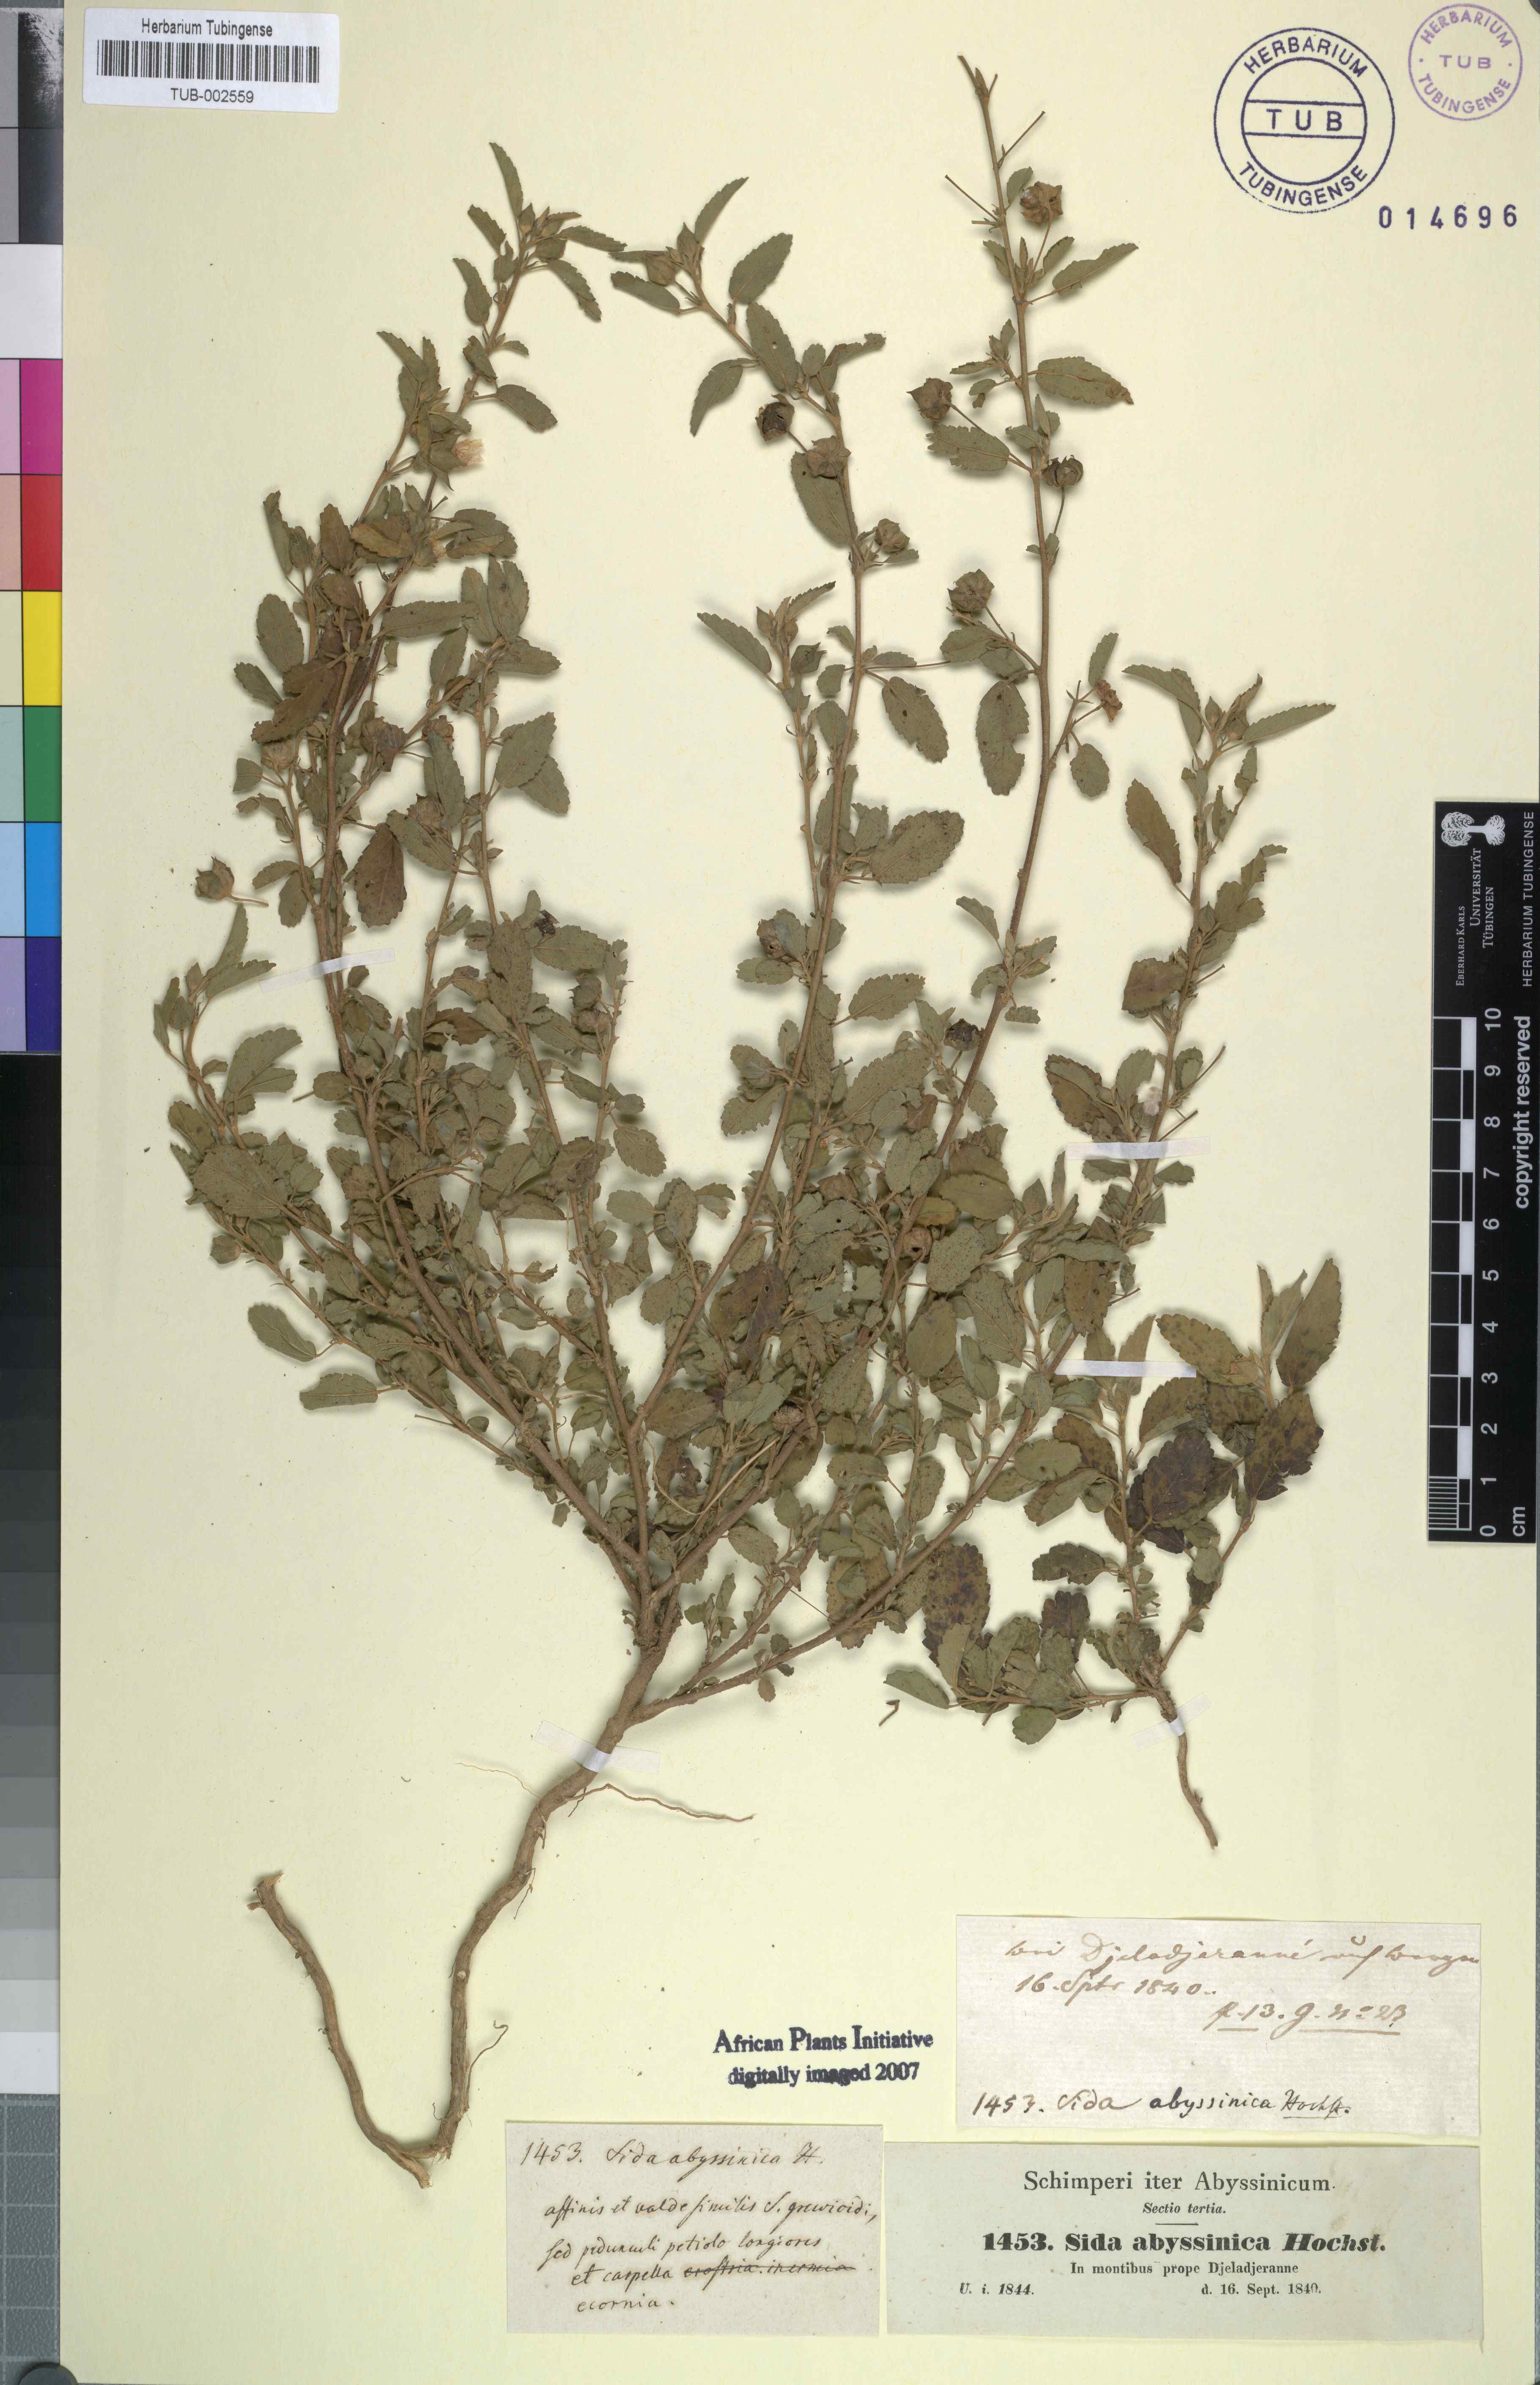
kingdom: Plantae
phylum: Tracheophyta
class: Magnoliopsida
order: Malvales
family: Malvaceae
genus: Sida
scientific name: Sida ovata
